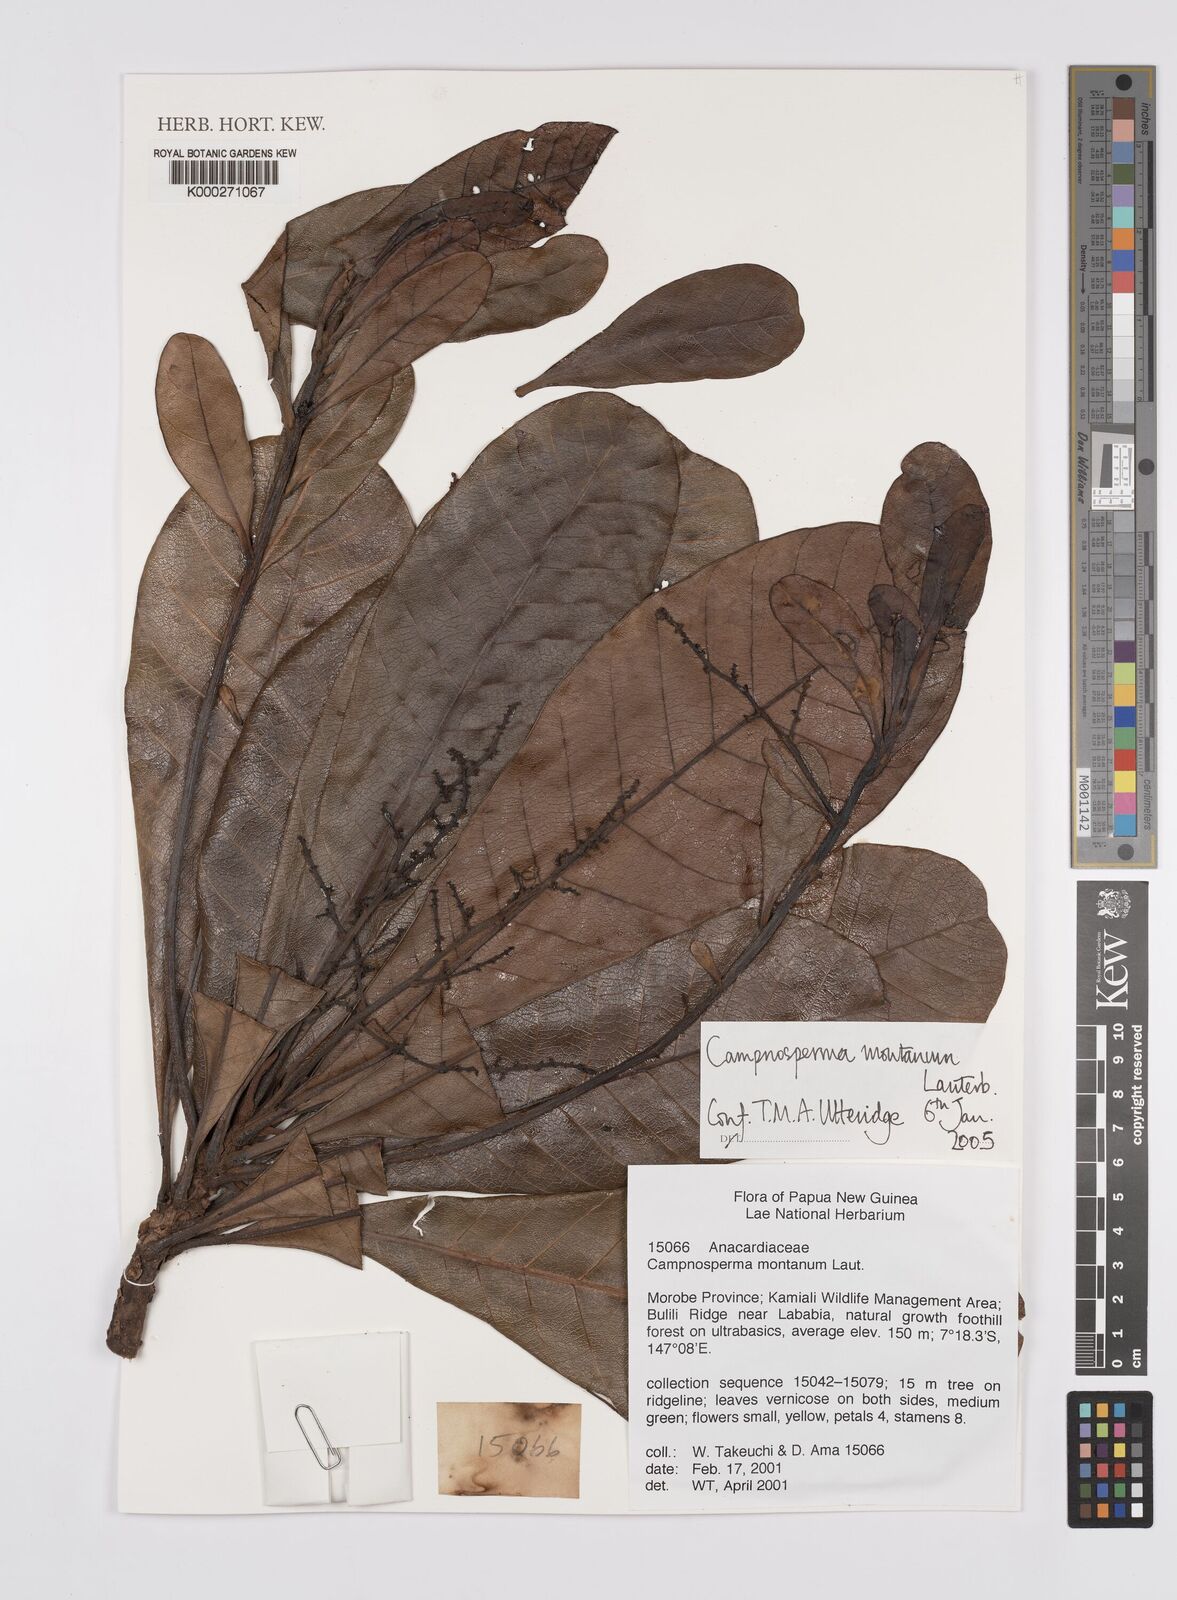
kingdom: Plantae
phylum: Tracheophyta
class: Magnoliopsida
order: Sapindales
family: Anacardiaceae
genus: Campnosperma
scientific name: Campnosperma montanum
